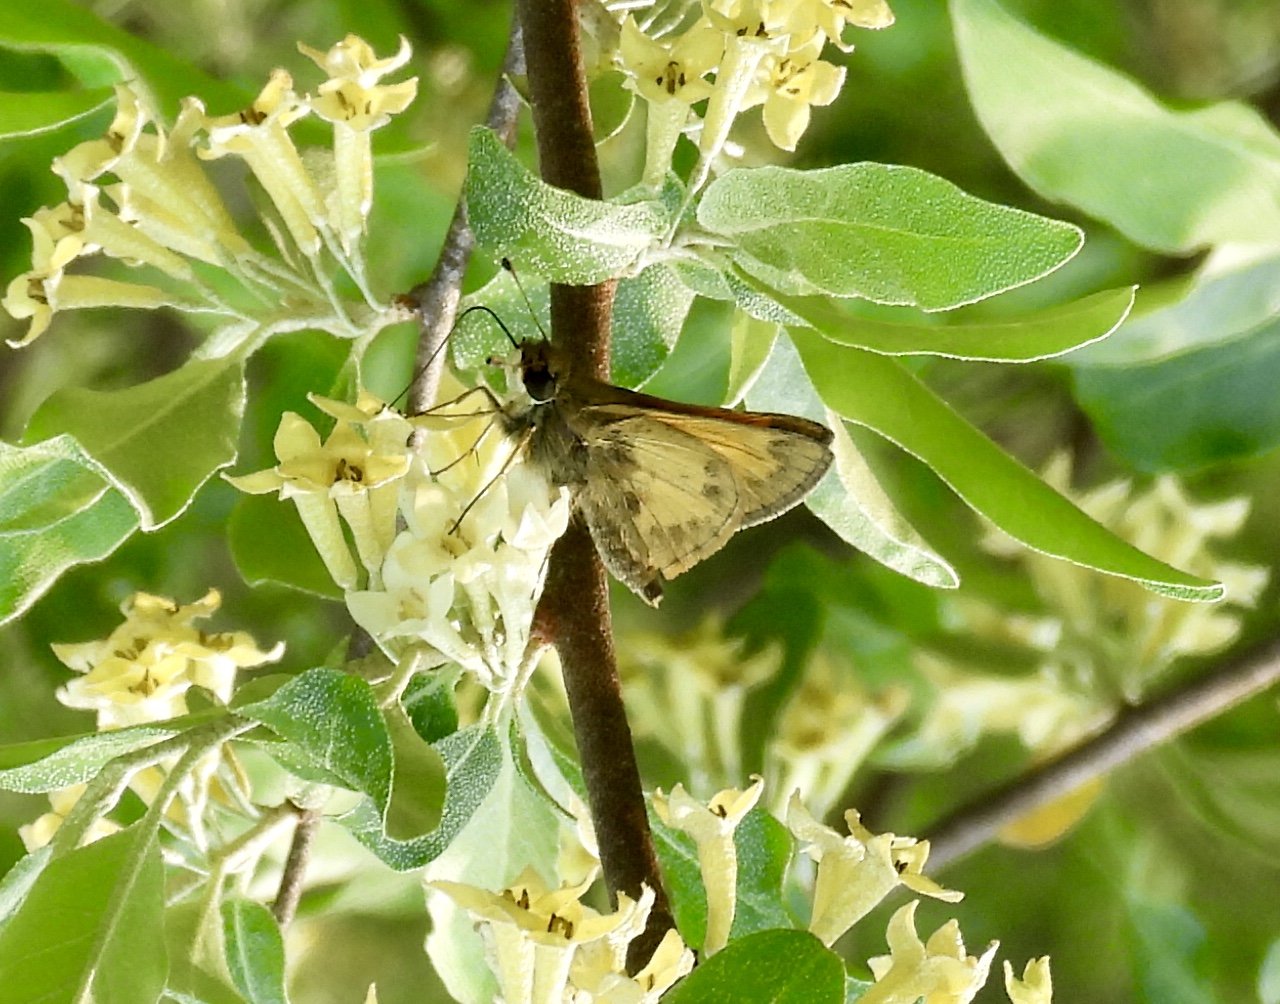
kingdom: Animalia
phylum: Arthropoda
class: Insecta
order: Lepidoptera
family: Hesperiidae
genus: Atalopedes
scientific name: Atalopedes campestris
